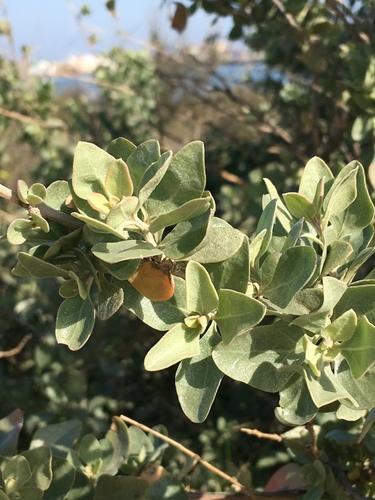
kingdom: Plantae
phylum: Tracheophyta
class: Magnoliopsida
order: Caryophyllales
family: Amaranthaceae
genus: Atriplex
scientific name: Atriplex halimus
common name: Shrubby orache
